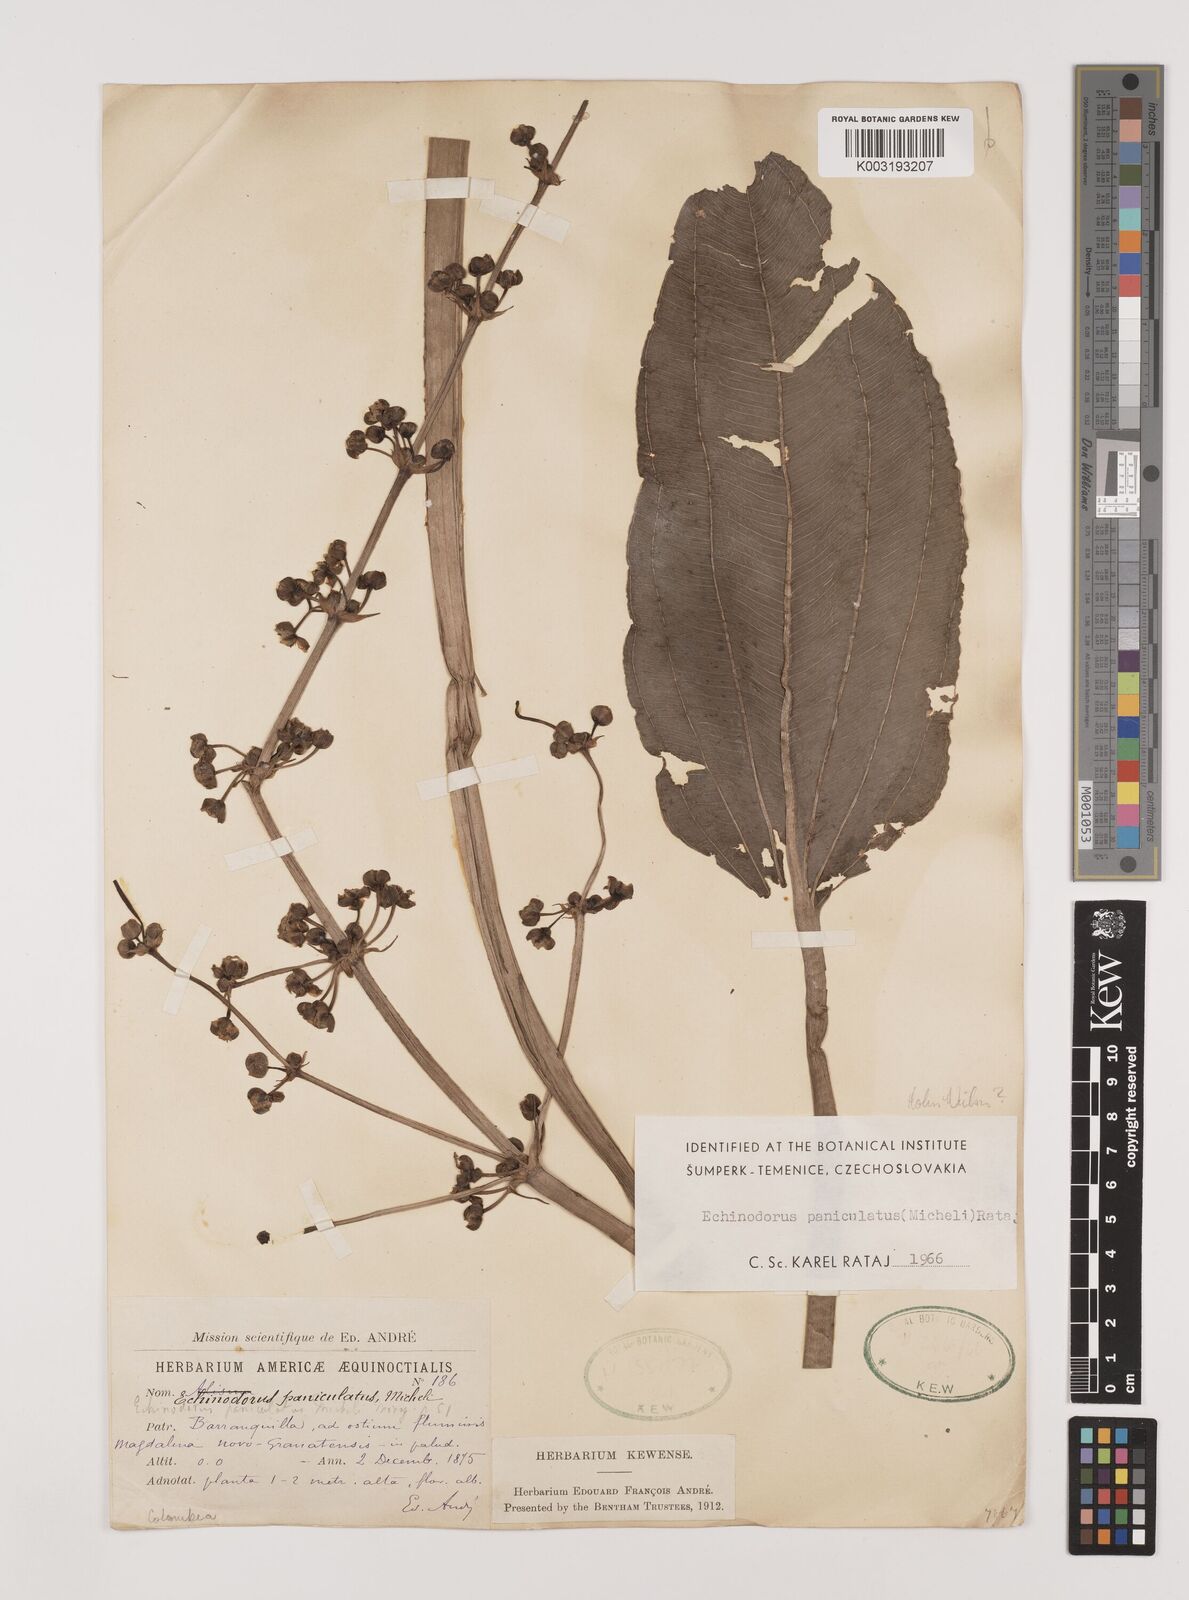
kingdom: Plantae
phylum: Tracheophyta
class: Liliopsida
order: Alismatales
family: Alismataceae
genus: Aquarius
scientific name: Aquarius paniculatus
